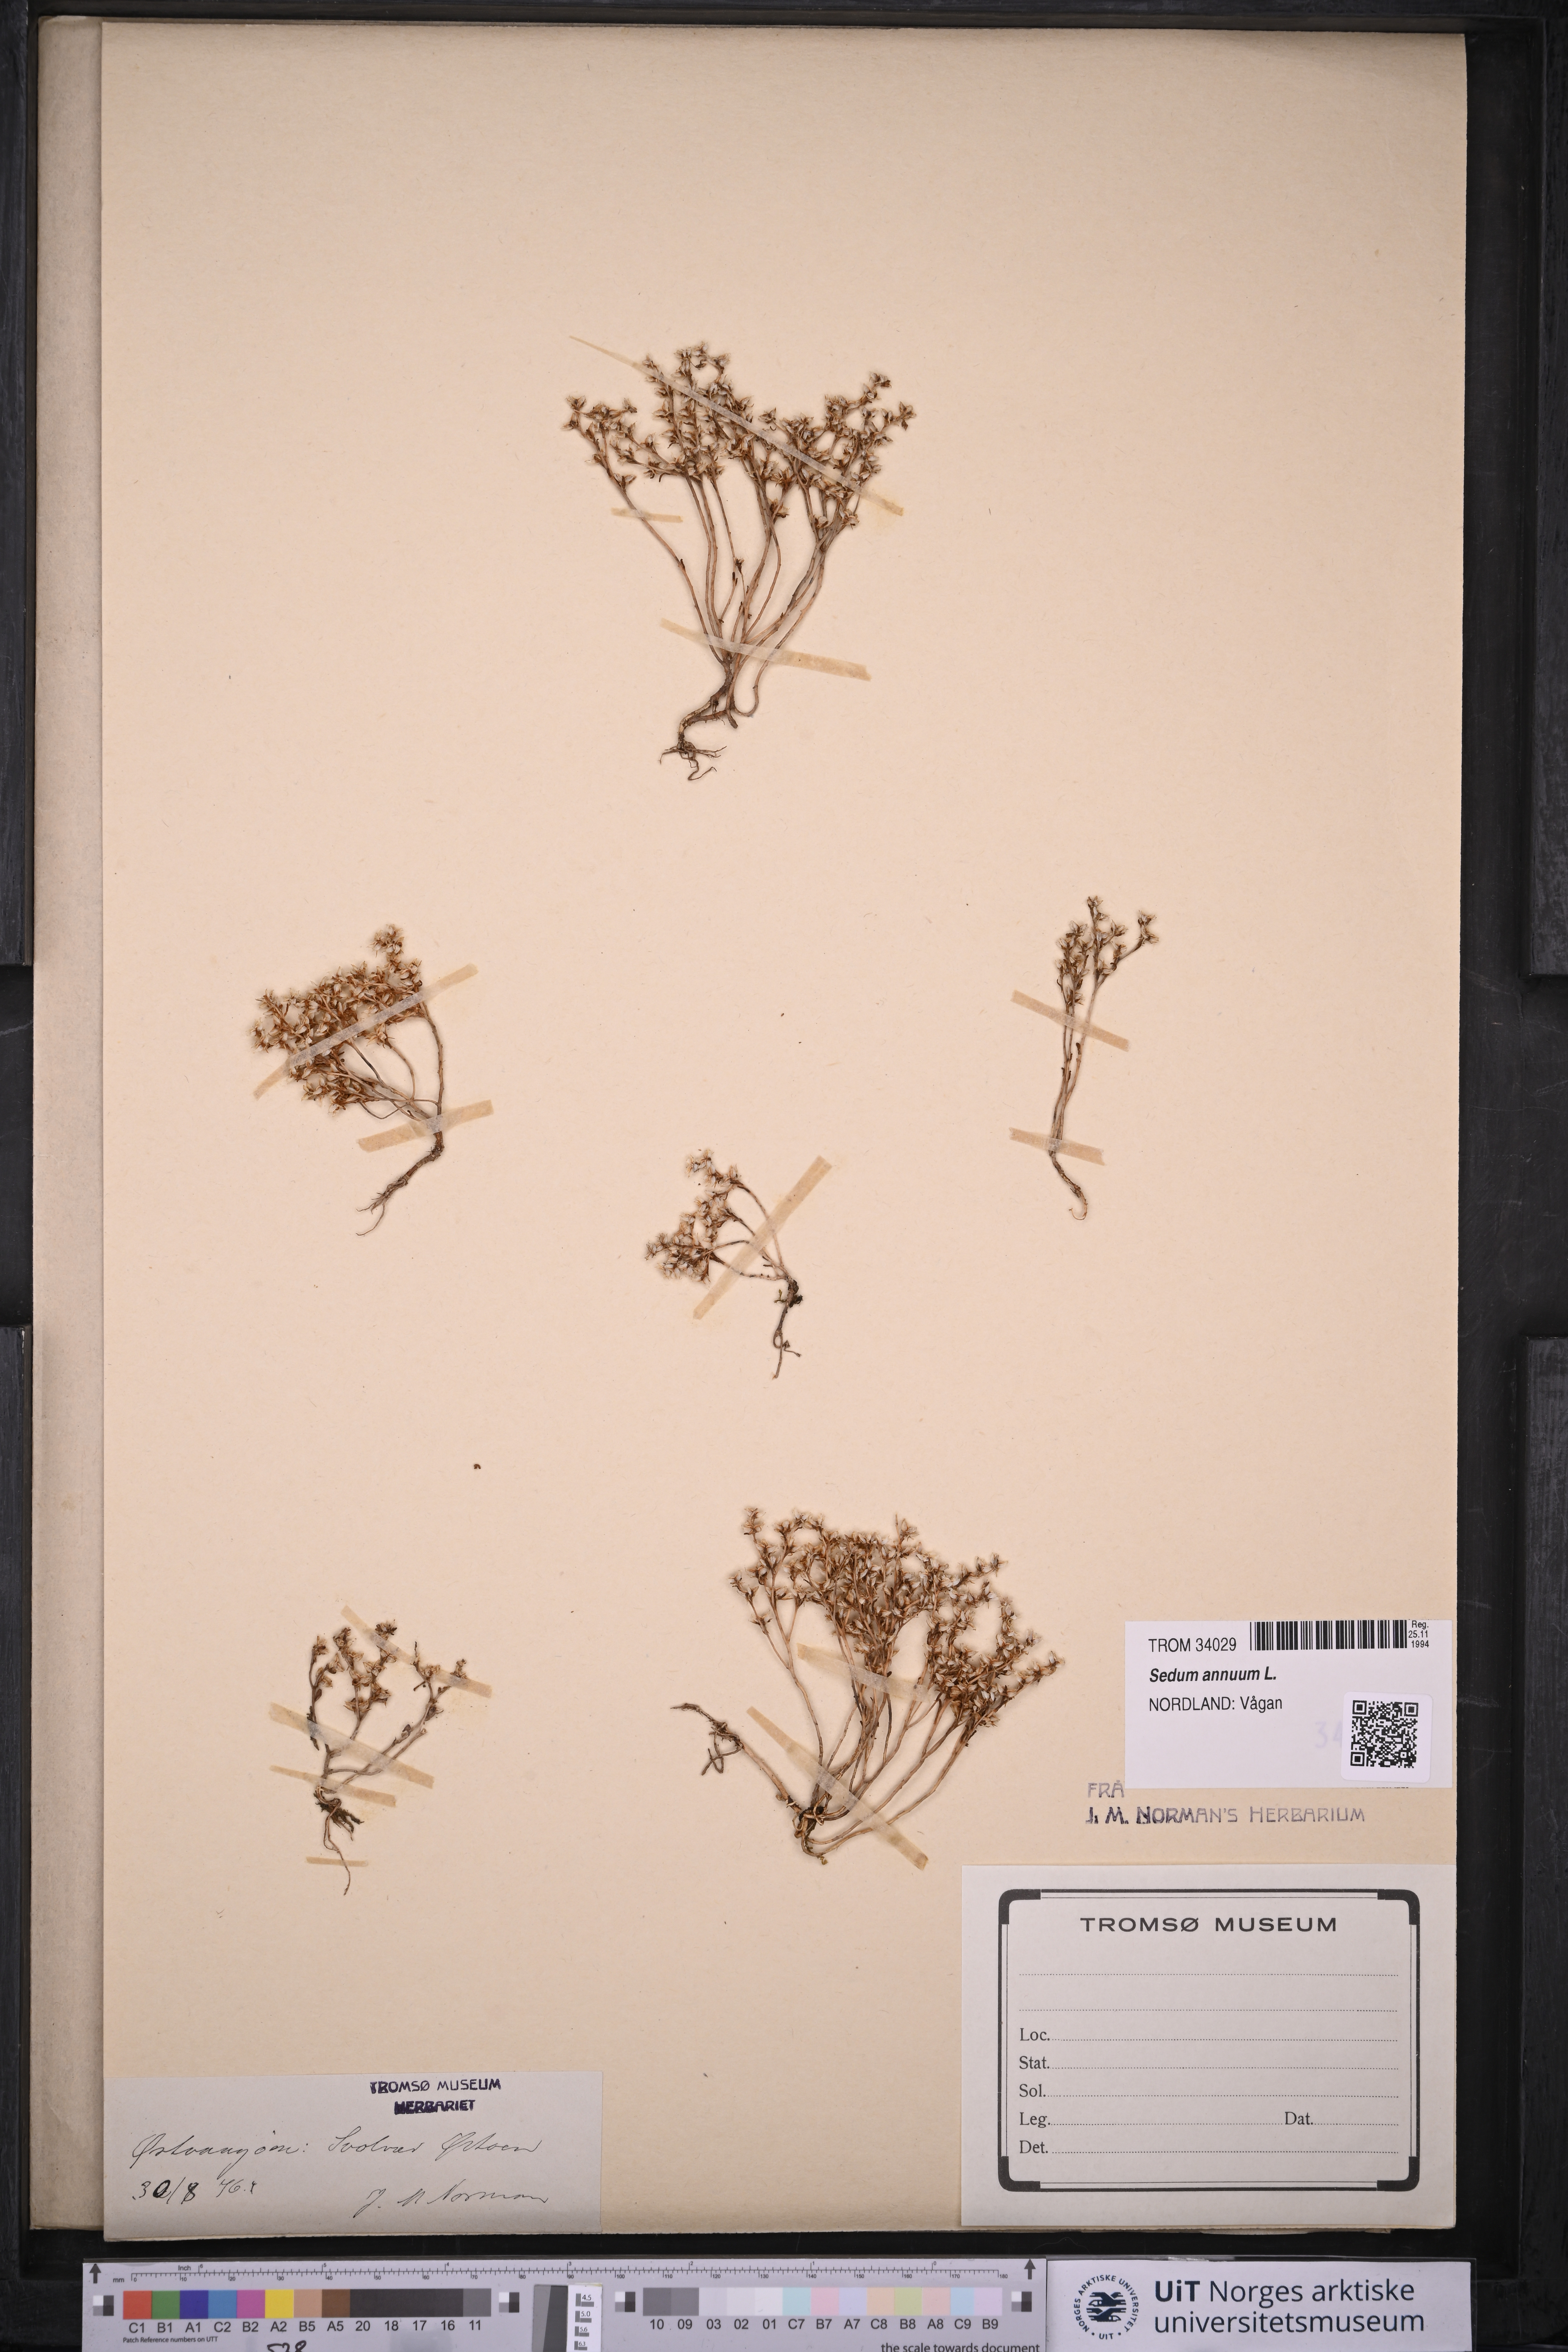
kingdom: Plantae
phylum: Tracheophyta
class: Magnoliopsida
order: Saxifragales
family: Crassulaceae
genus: Sedum
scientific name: Sedum annuum
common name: Annual stonecrop
